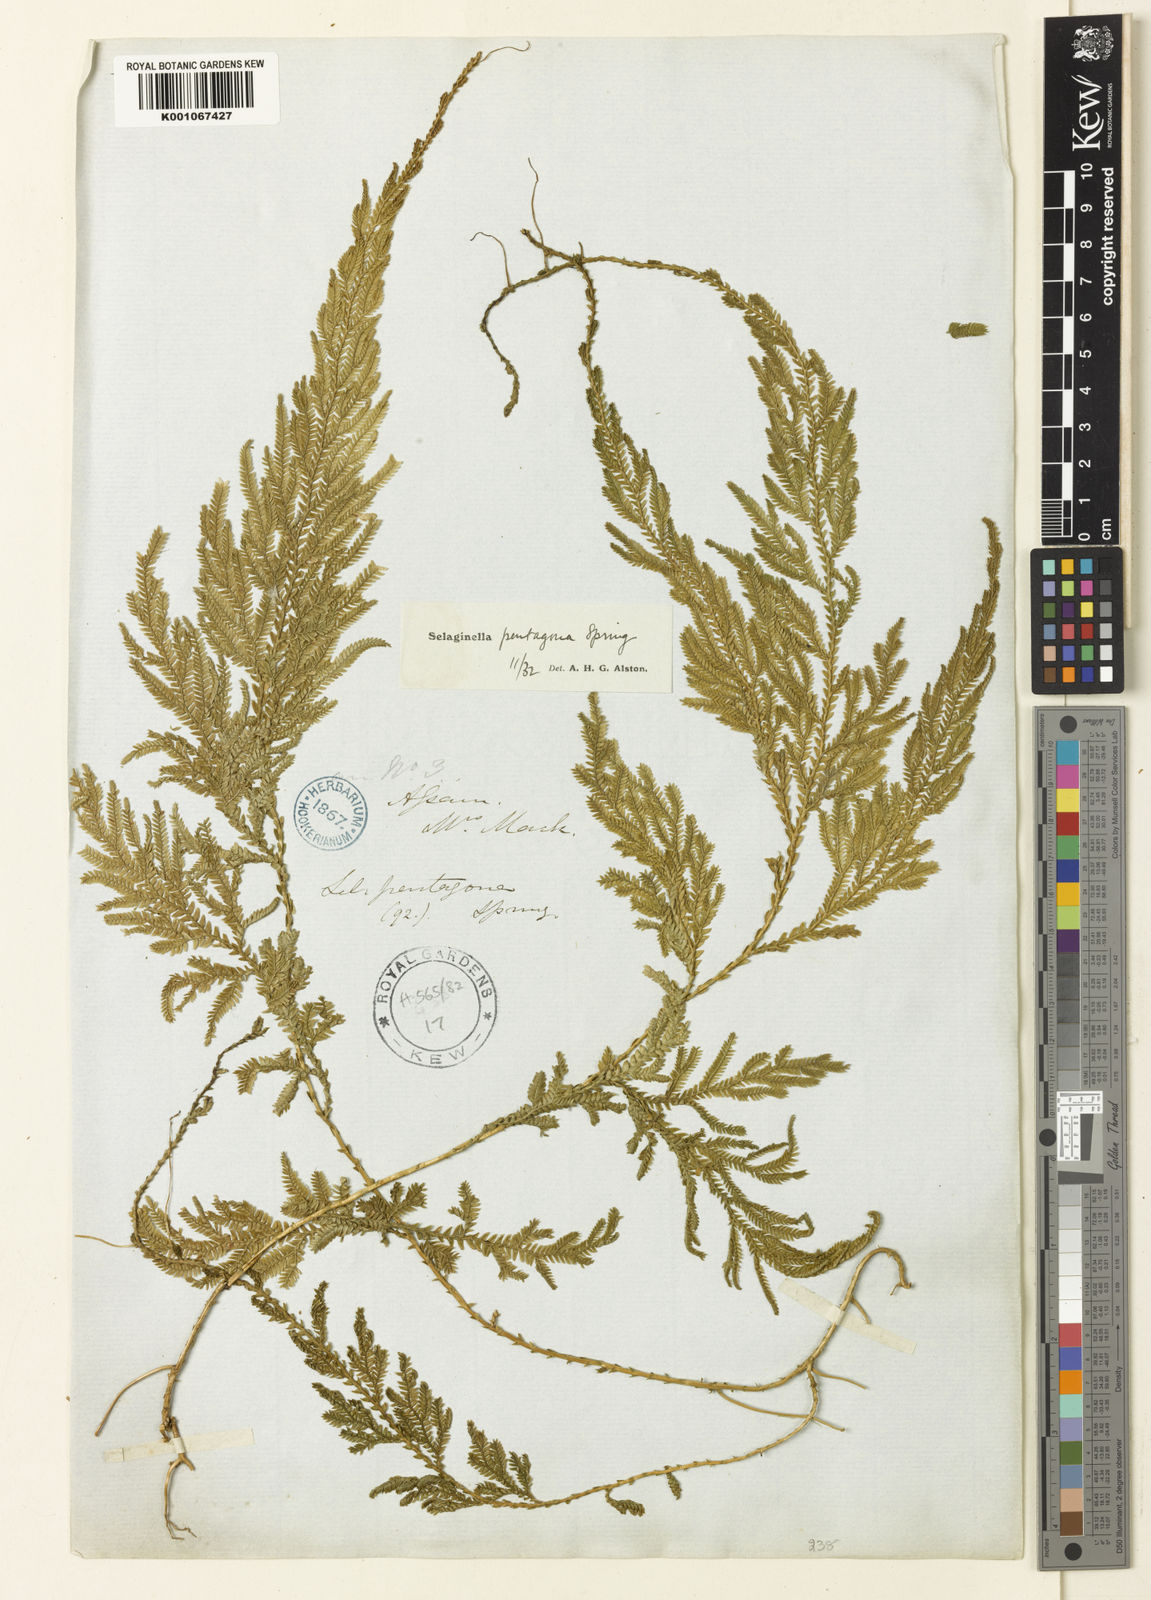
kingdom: Plantae
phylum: Tracheophyta
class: Lycopodiopsida
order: Selaginellales
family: Selaginellaceae
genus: Selaginella
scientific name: Selaginella pentagona
